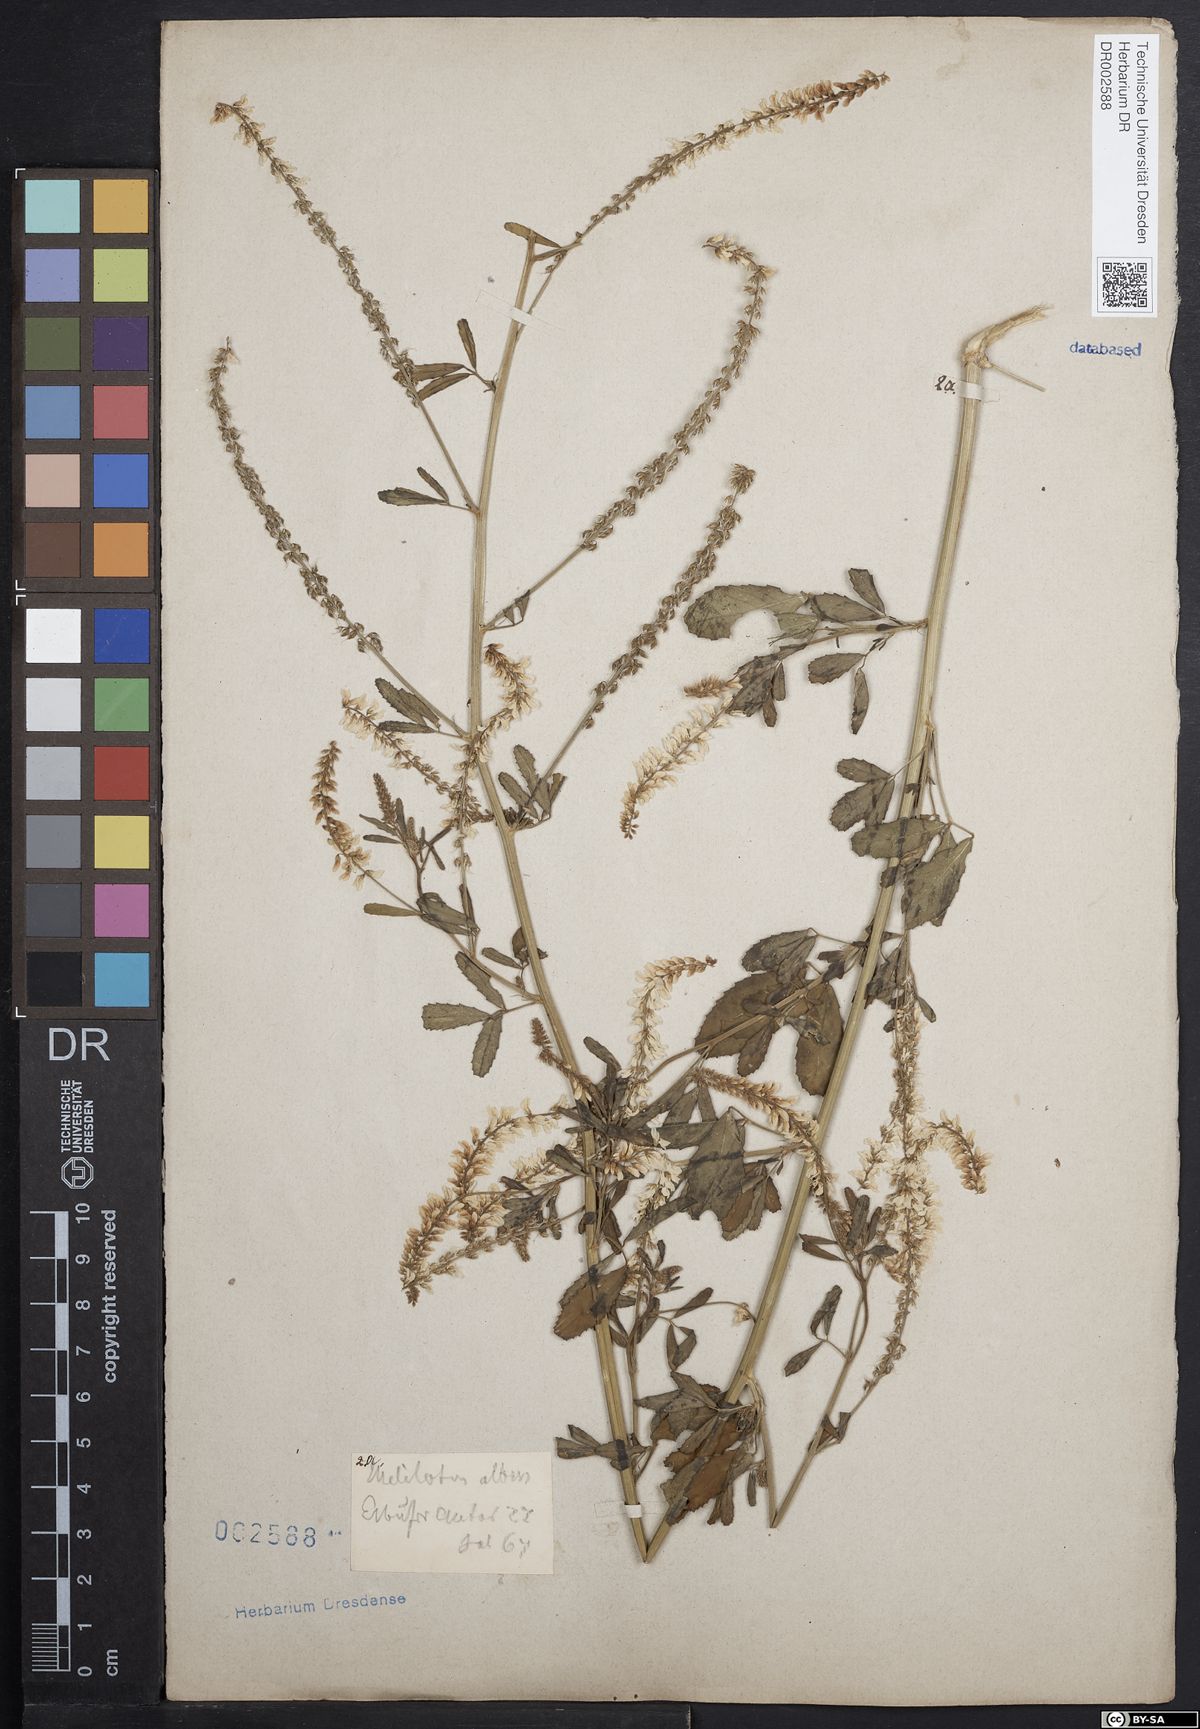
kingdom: Plantae
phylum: Tracheophyta
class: Magnoliopsida
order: Fabales
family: Fabaceae
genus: Melilotus
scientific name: Melilotus albus
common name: White melilot
